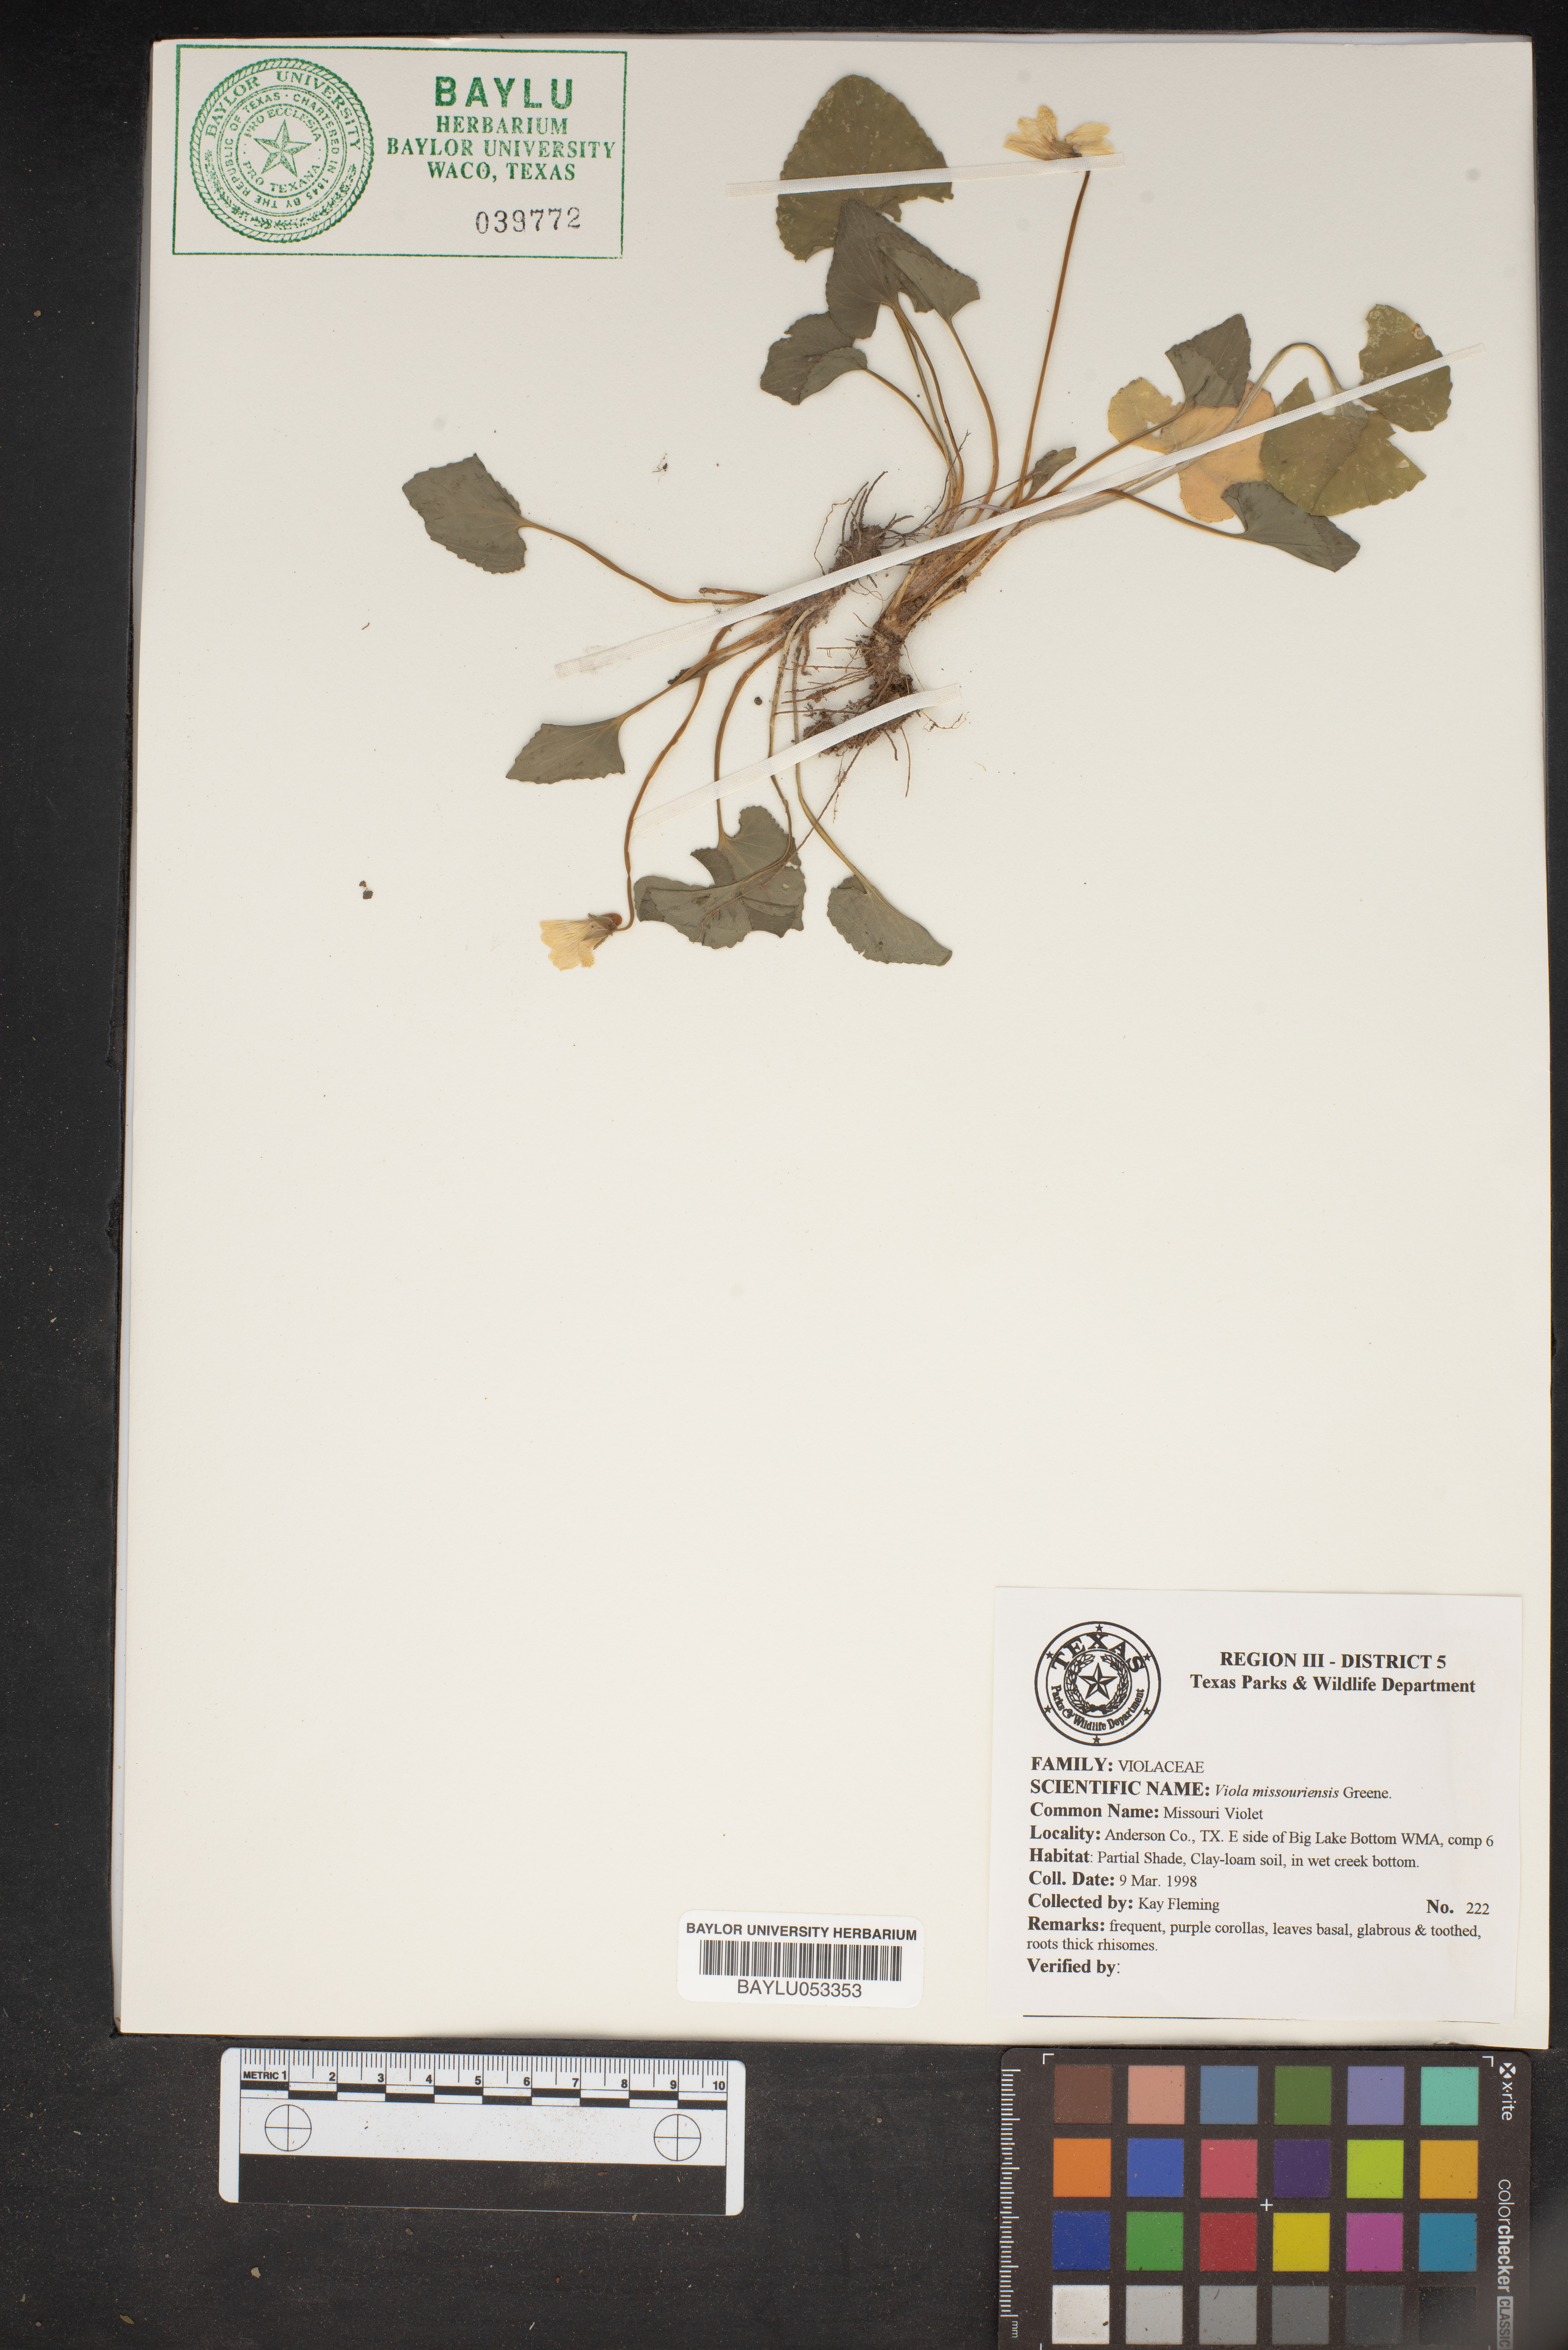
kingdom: Plantae
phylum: Tracheophyta
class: Magnoliopsida
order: Malpighiales
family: Violaceae
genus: Viola
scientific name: Viola missouriensis
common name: Missouri violet
